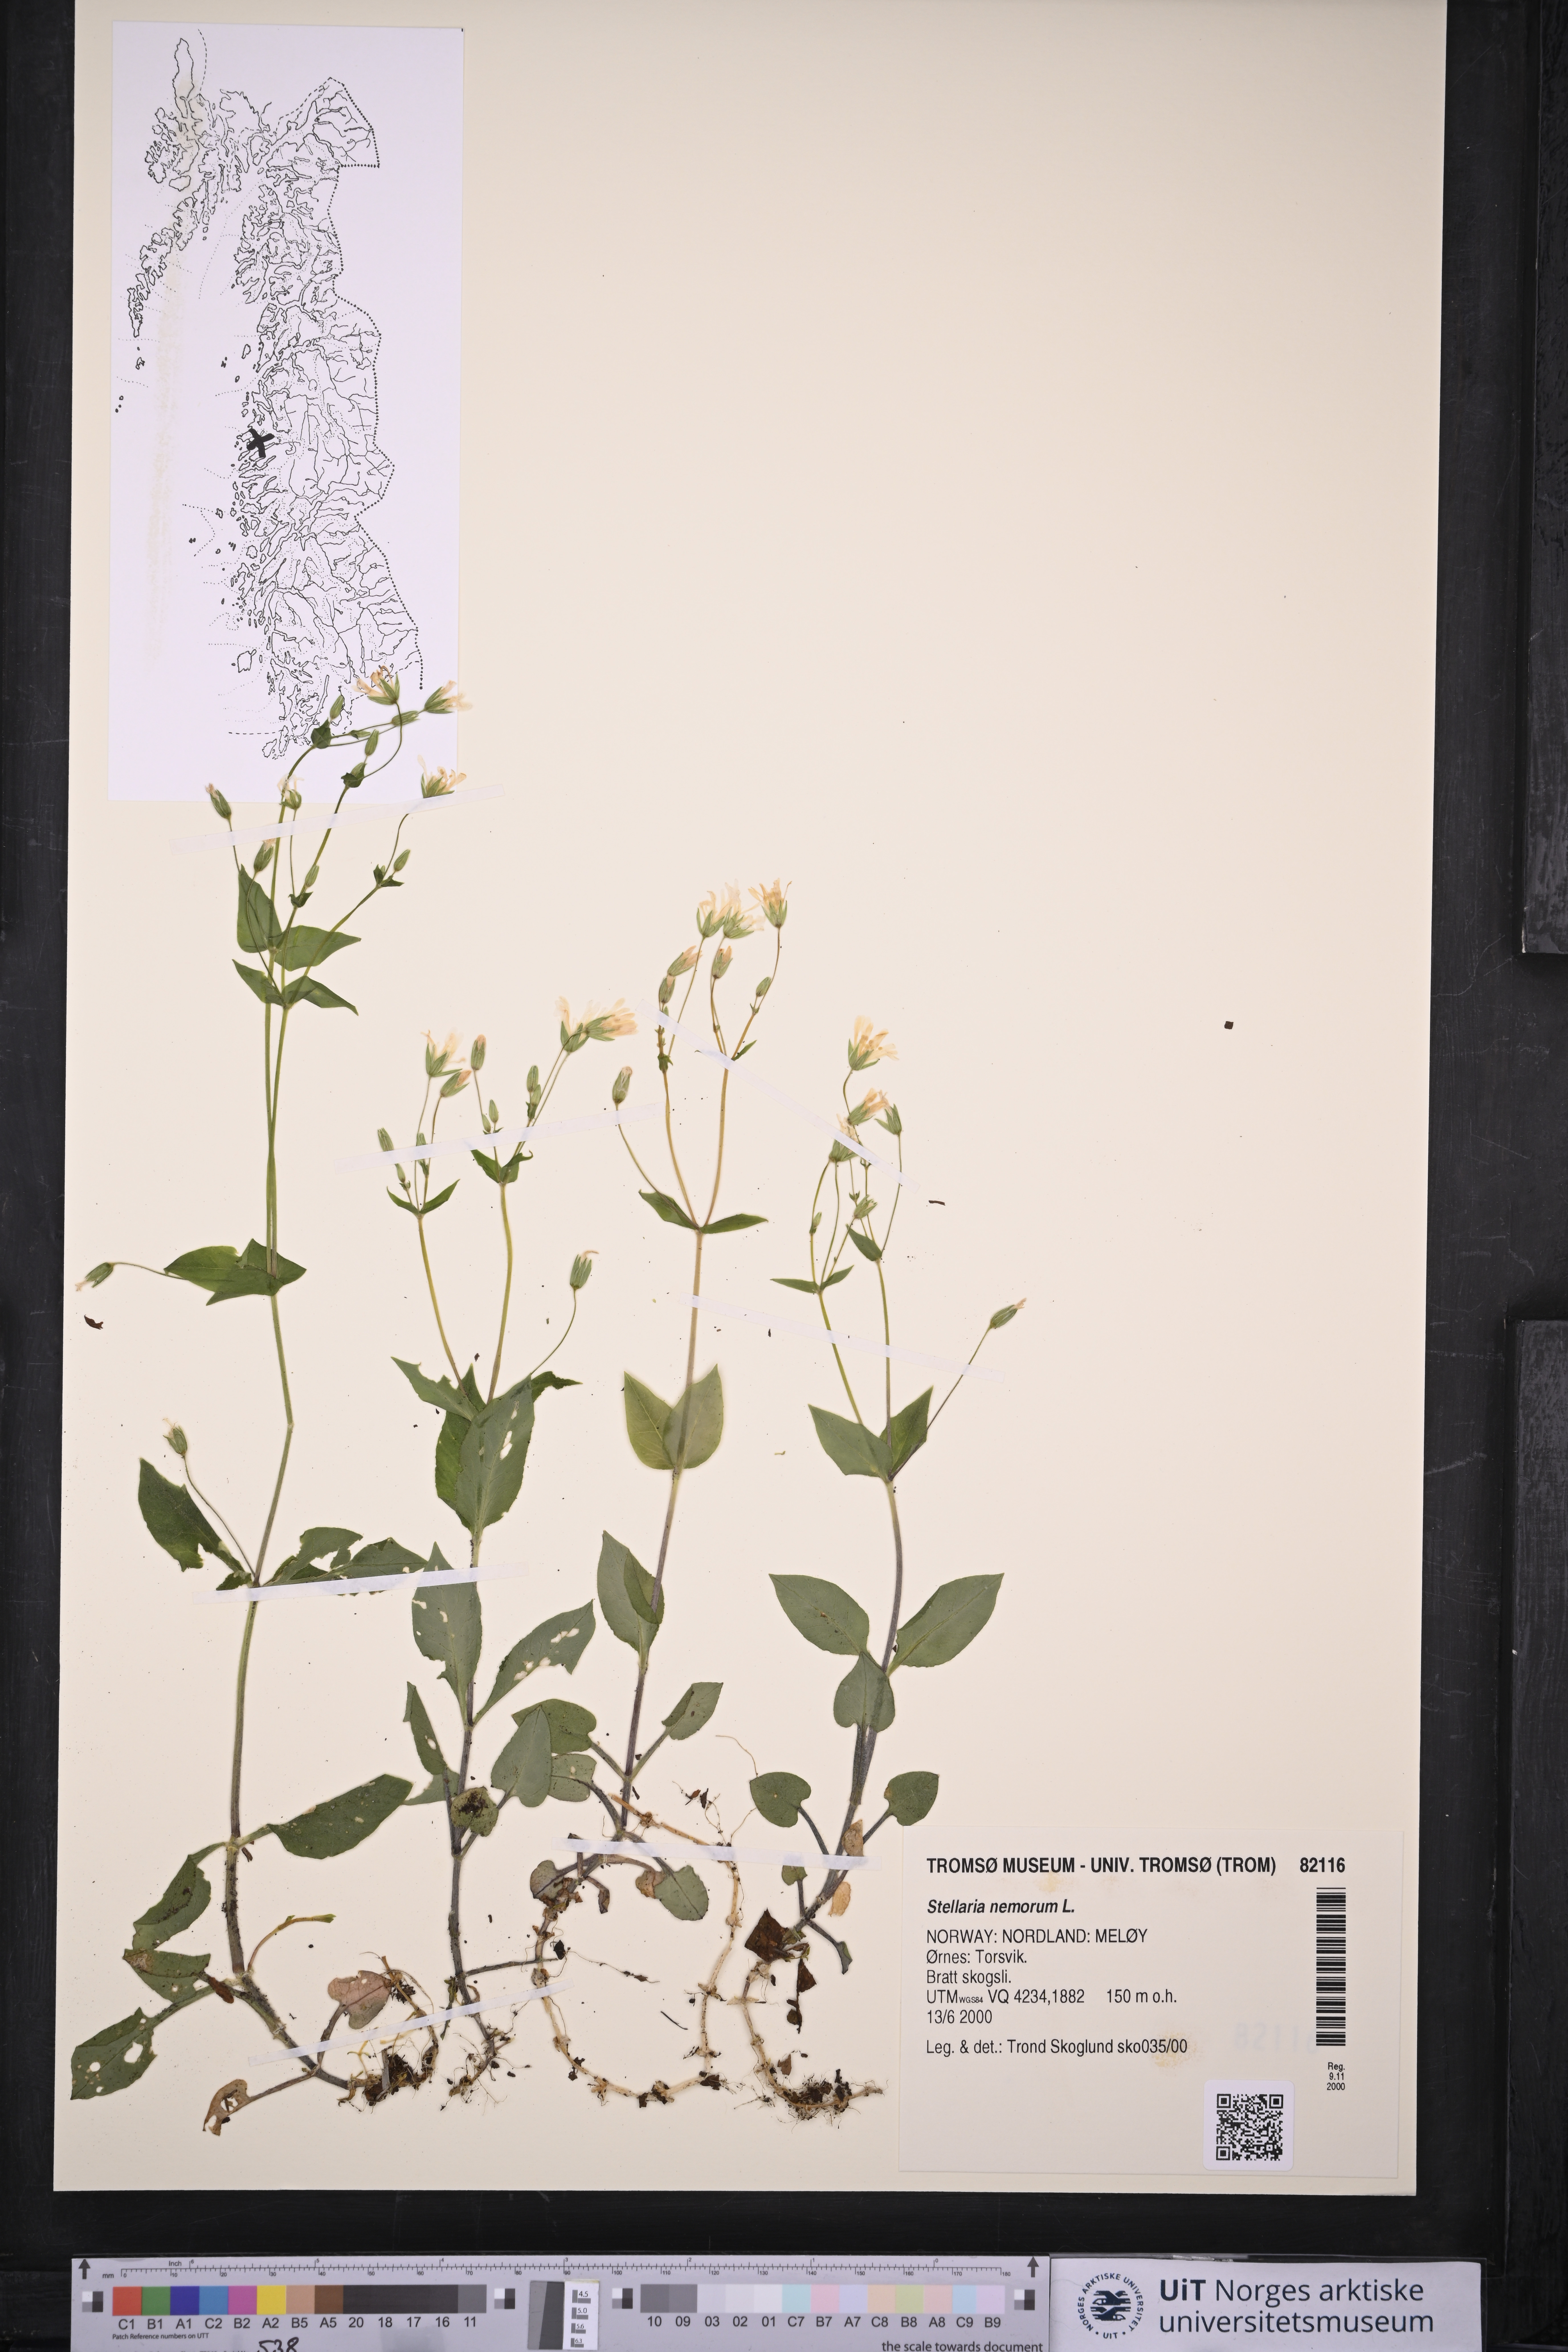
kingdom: Plantae
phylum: Tracheophyta
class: Magnoliopsida
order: Caryophyllales
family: Caryophyllaceae
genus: Stellaria
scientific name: Stellaria nemorum
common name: Wood stitchwort
